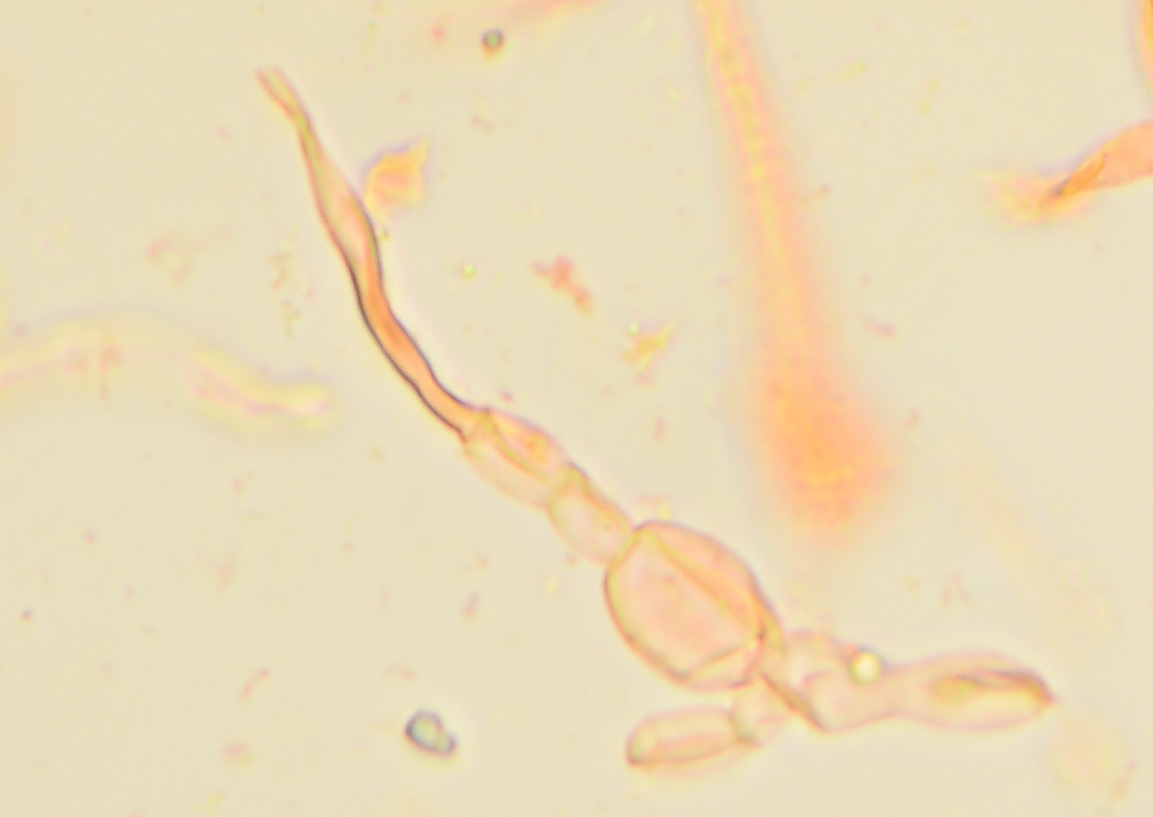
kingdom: Fungi
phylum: Basidiomycota
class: Agaricomycetes
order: Russulales
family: Russulaceae
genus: Russula
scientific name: Russula violeipes
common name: ferskengul skørhat
